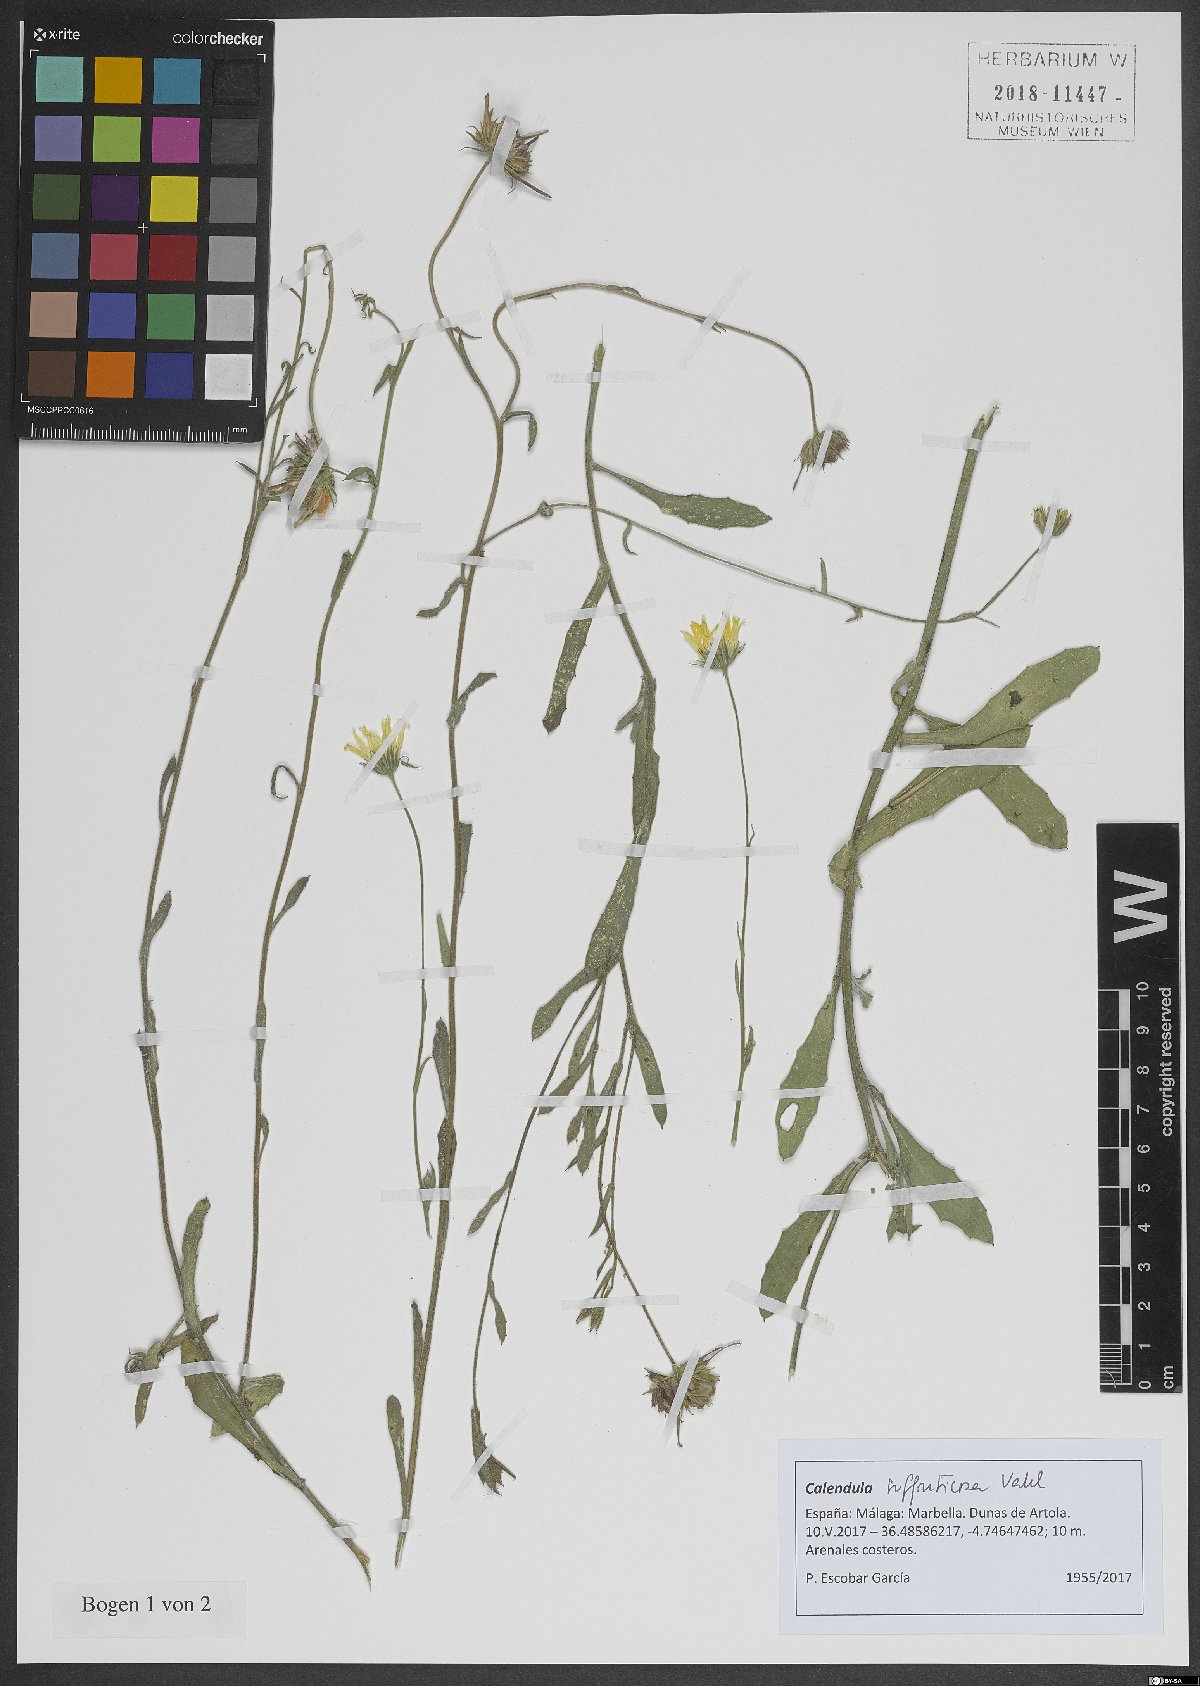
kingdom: Plantae
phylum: Tracheophyta
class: Magnoliopsida
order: Asterales
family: Asteraceae
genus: Calendula
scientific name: Calendula suffruticosa
